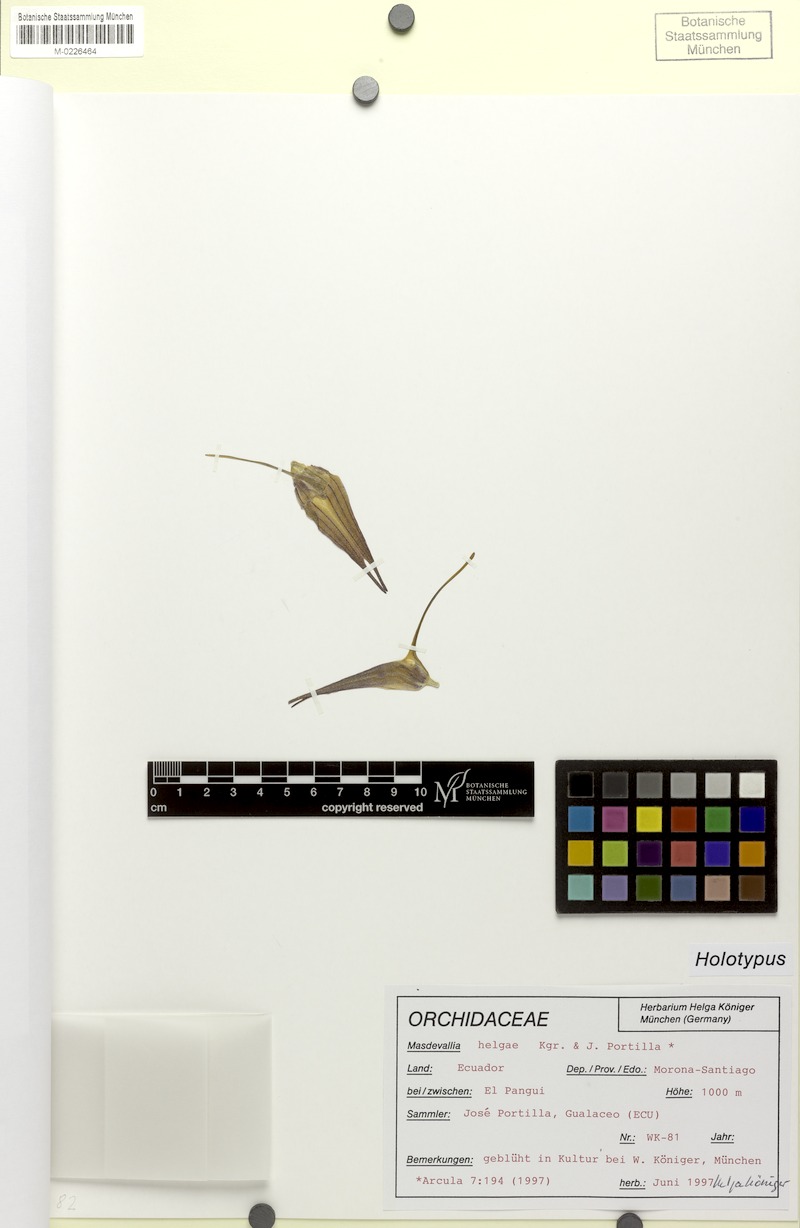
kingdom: Plantae
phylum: Tracheophyta
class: Liliopsida
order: Asparagales
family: Orchidaceae
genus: Masdevallia
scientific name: Masdevallia helgae
